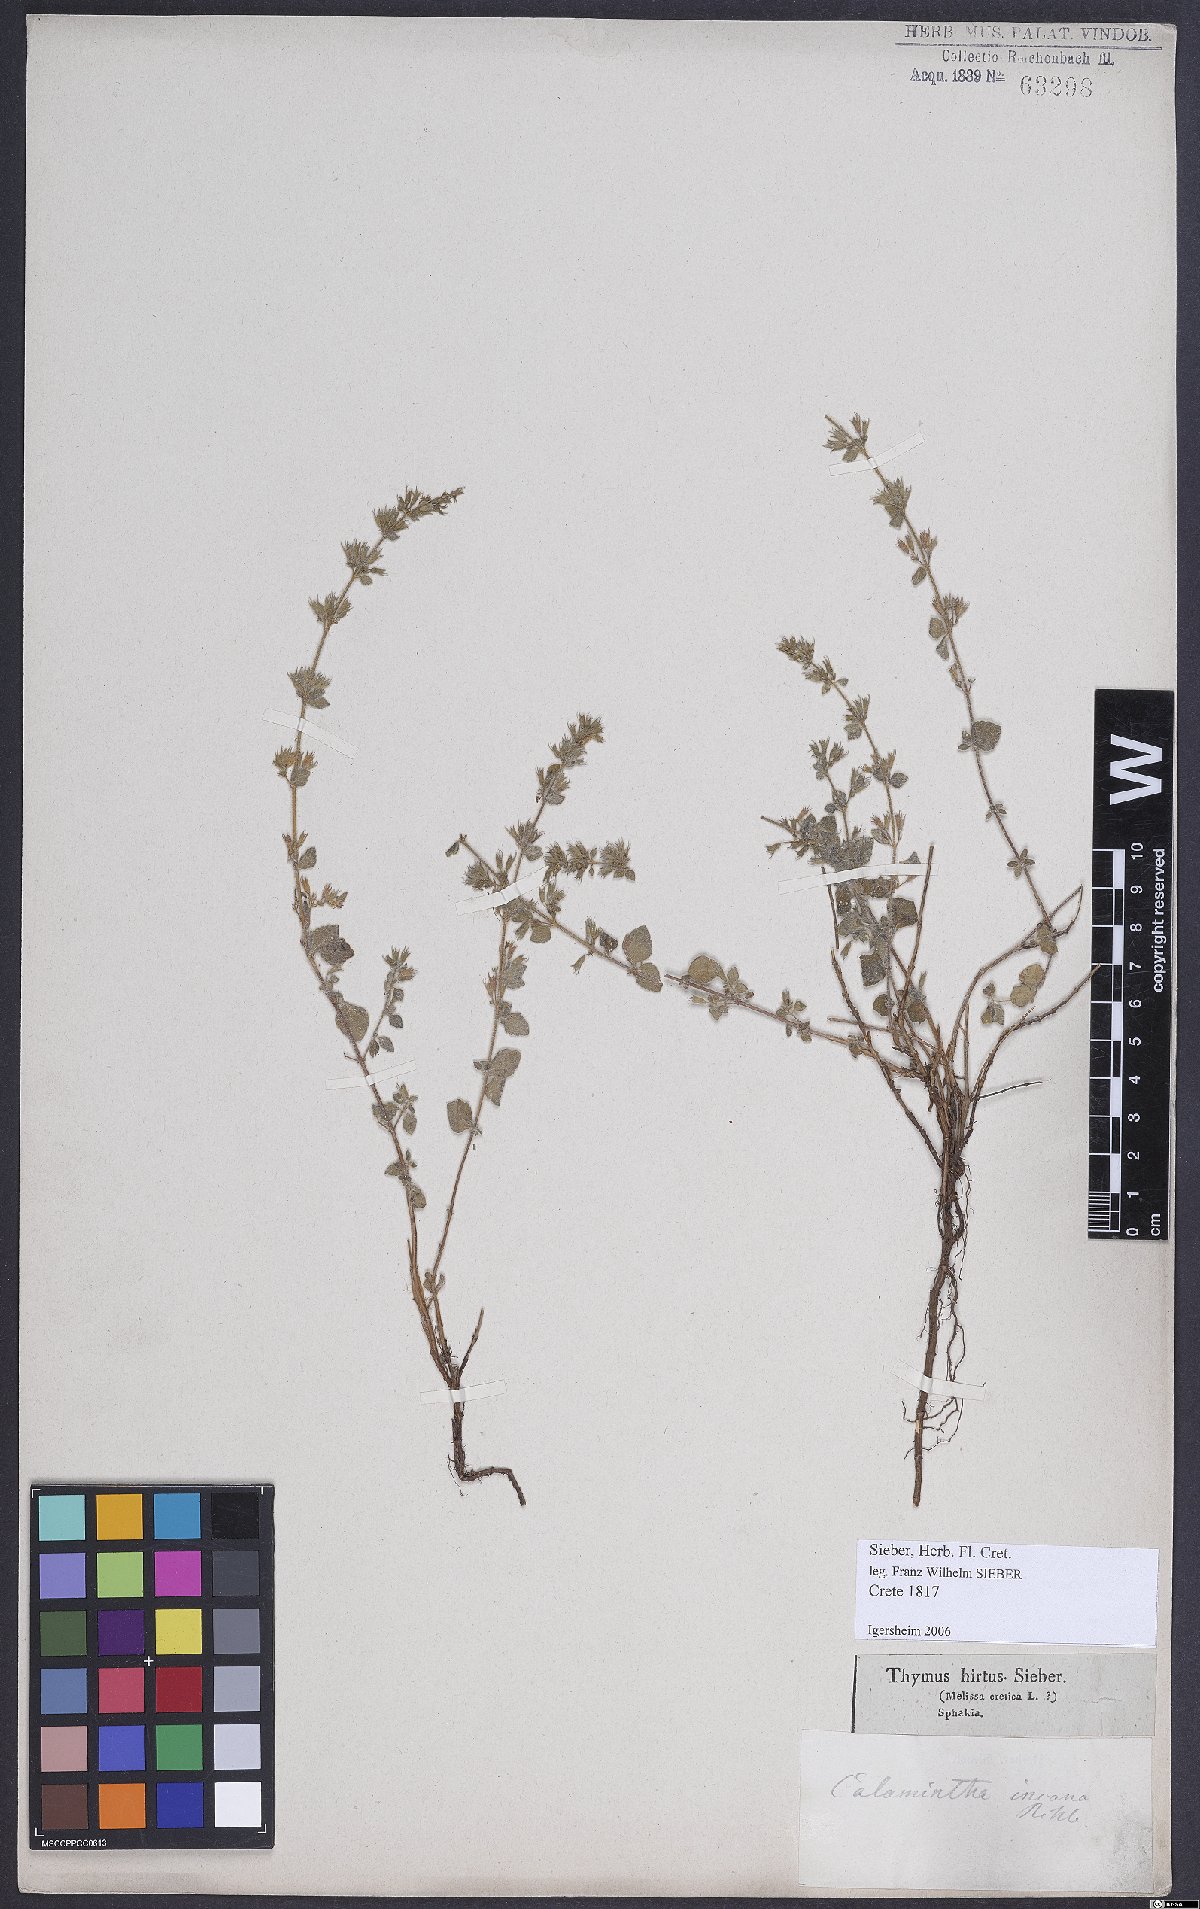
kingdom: Plantae
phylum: Tracheophyta
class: Magnoliopsida
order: Lamiales
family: Lamiaceae
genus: Clinopodium
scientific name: Clinopodium creticum
